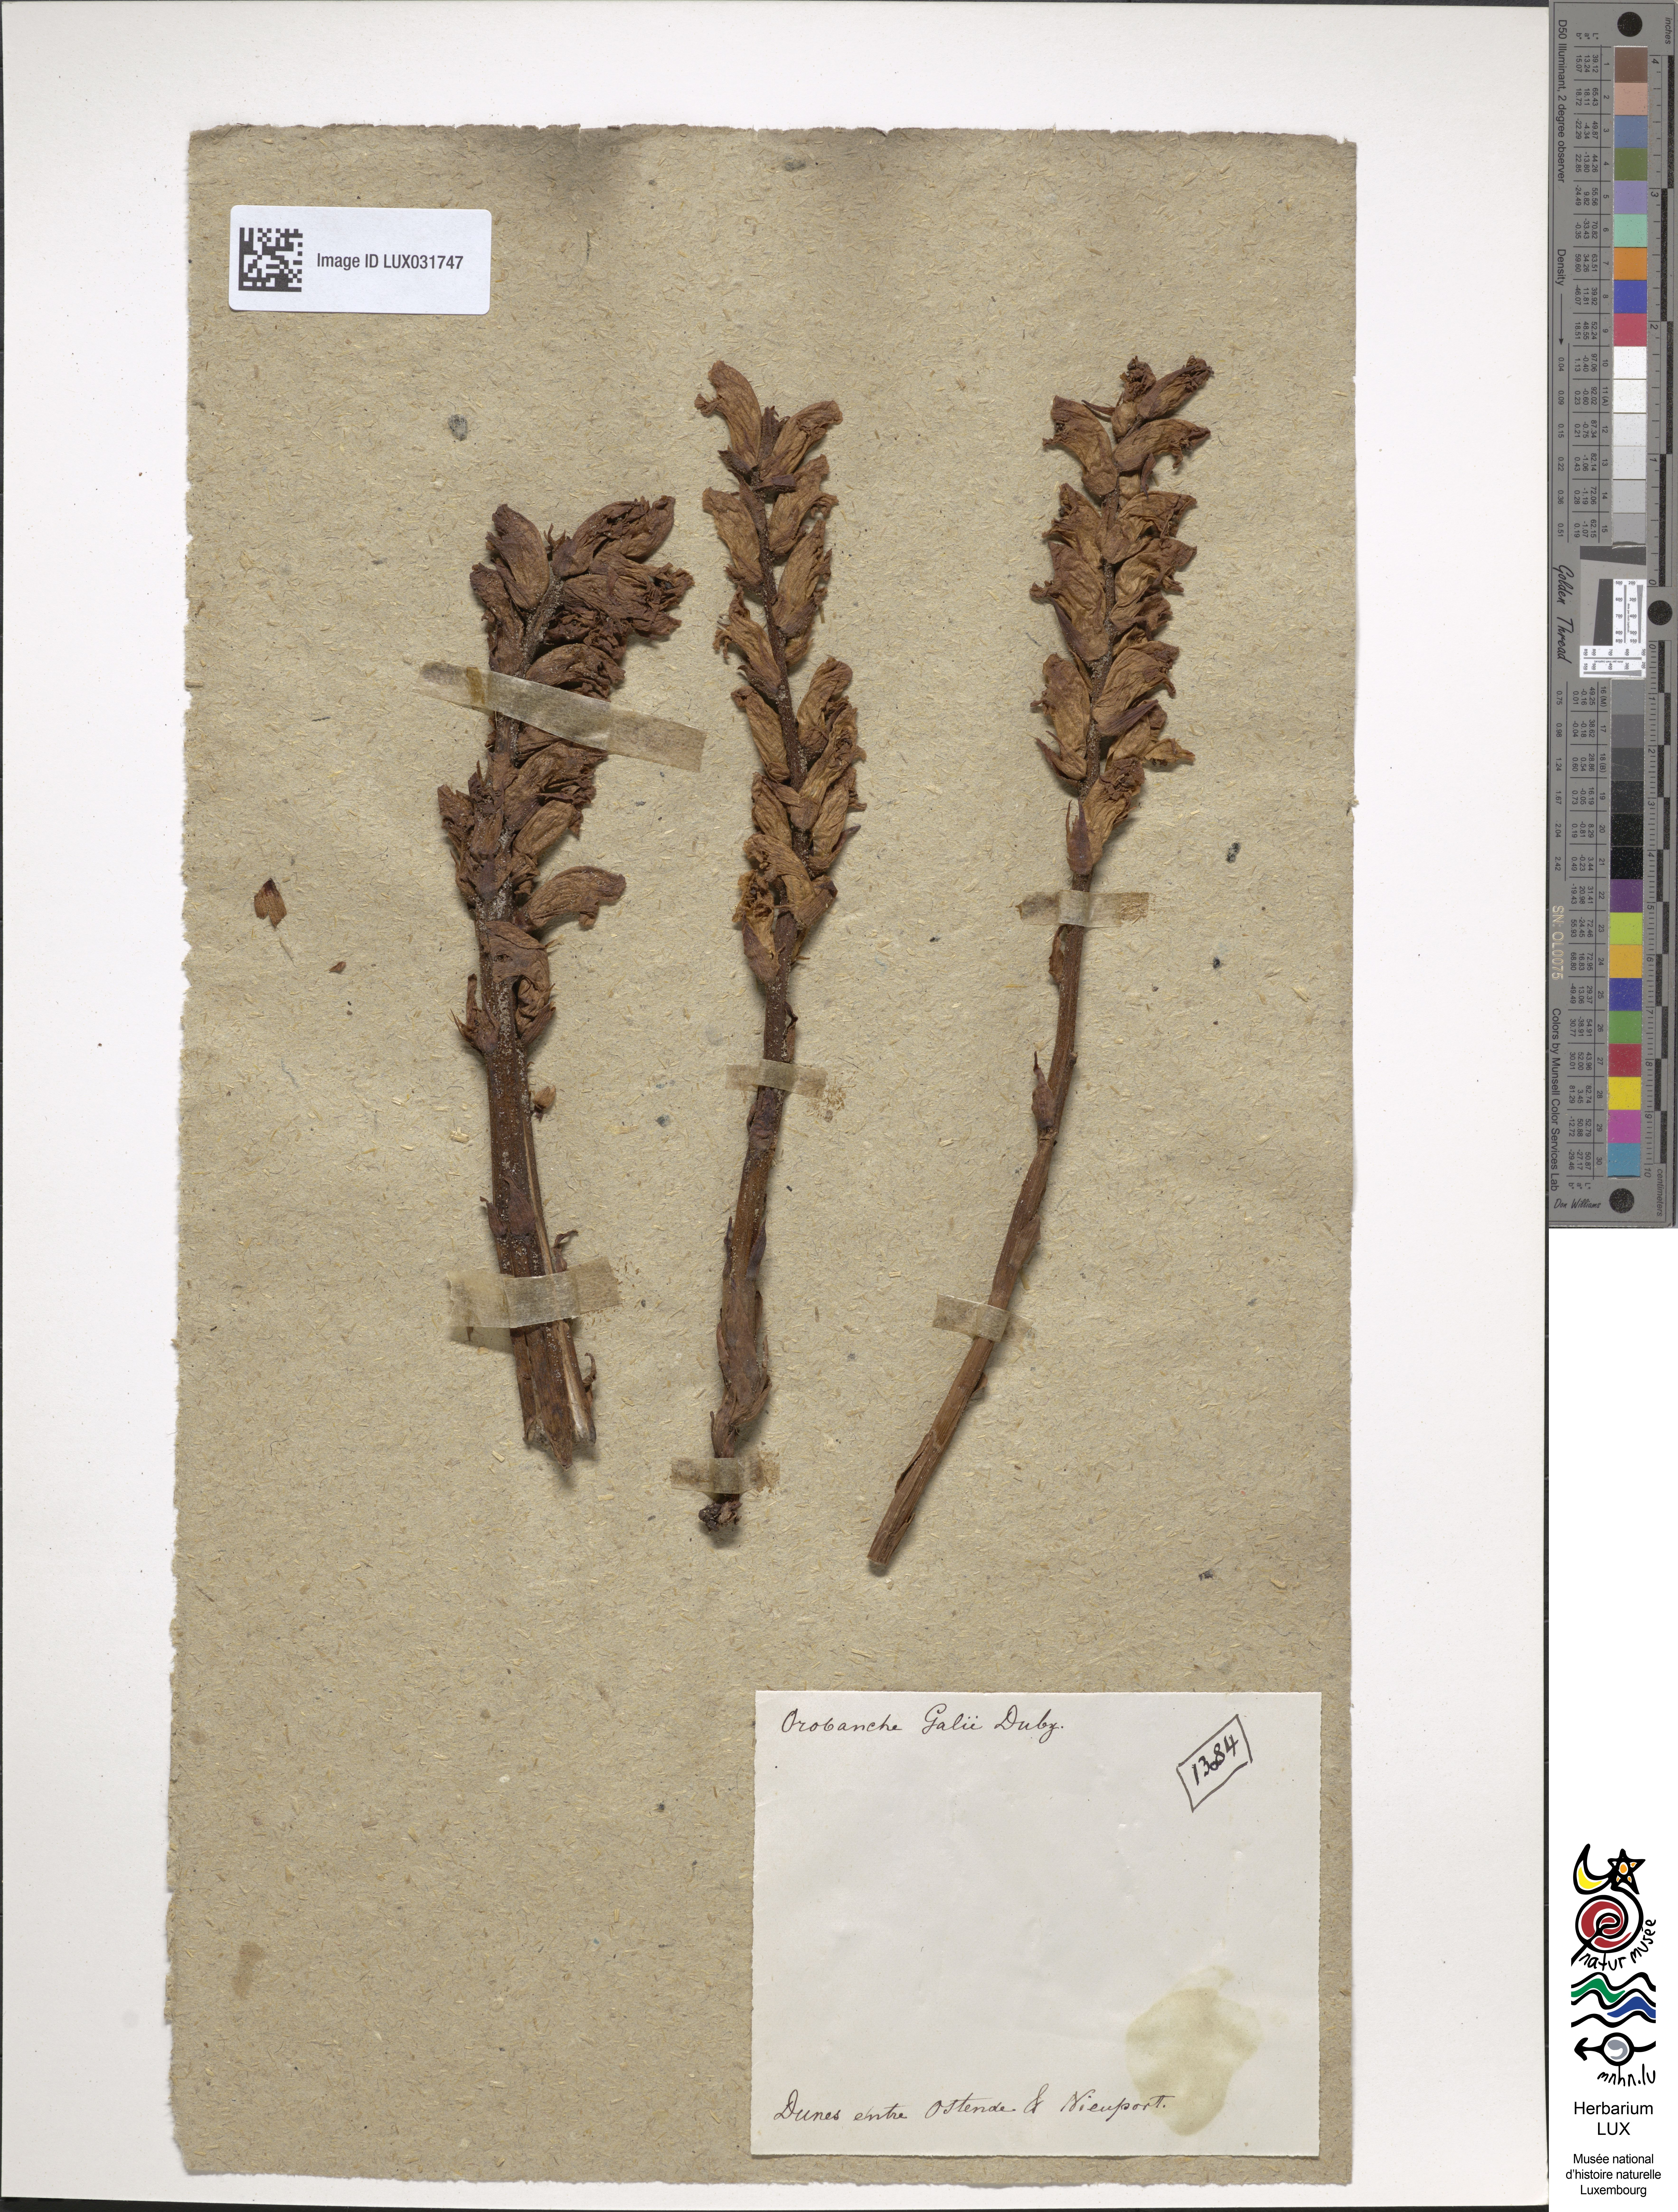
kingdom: Plantae
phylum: Tracheophyta
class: Magnoliopsida
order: Lamiales
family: Orobanchaceae
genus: Orobanche
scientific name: Orobanche caryophyllacea
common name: Bedstraw broomrape
